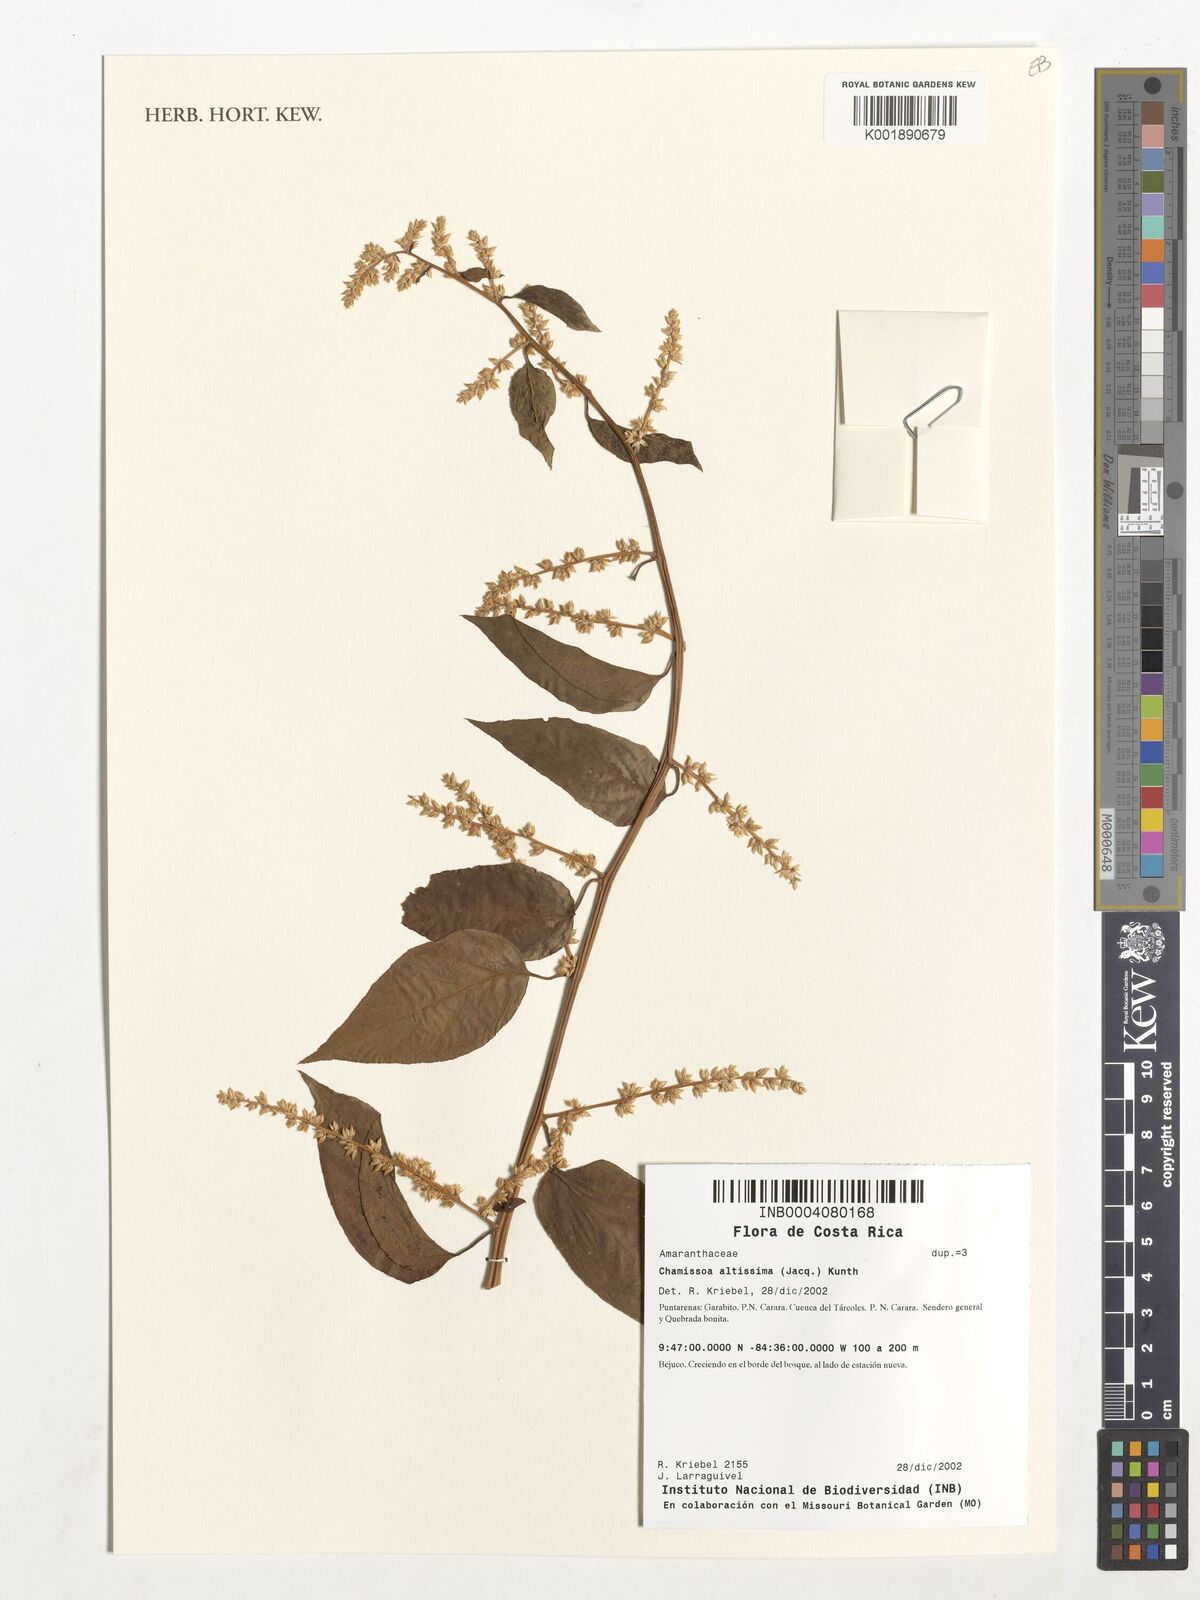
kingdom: Plantae
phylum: Tracheophyta
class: Magnoliopsida
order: Caryophyllales
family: Amaranthaceae
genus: Chamissoa
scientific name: Chamissoa altissima
